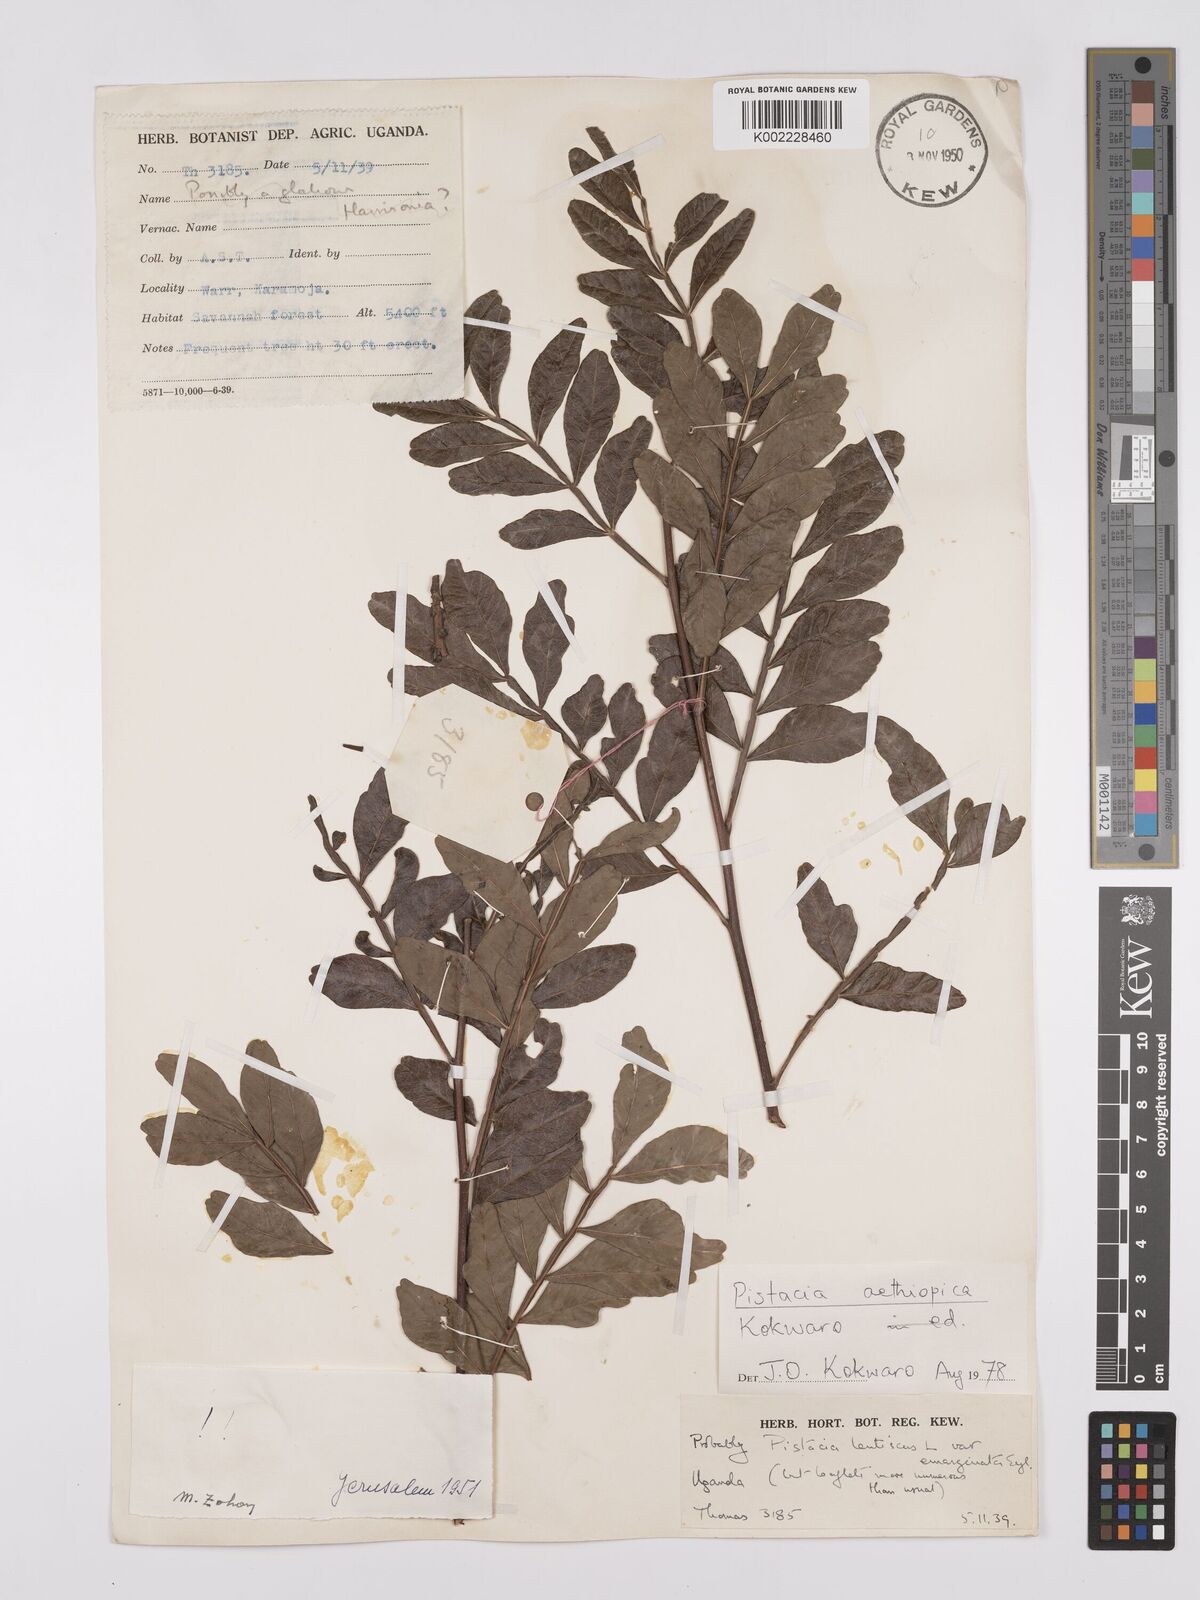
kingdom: Plantae
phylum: Tracheophyta
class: Magnoliopsida
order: Sapindales
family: Anacardiaceae
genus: Pistacia
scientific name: Pistacia lentiscus
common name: Lentisk
